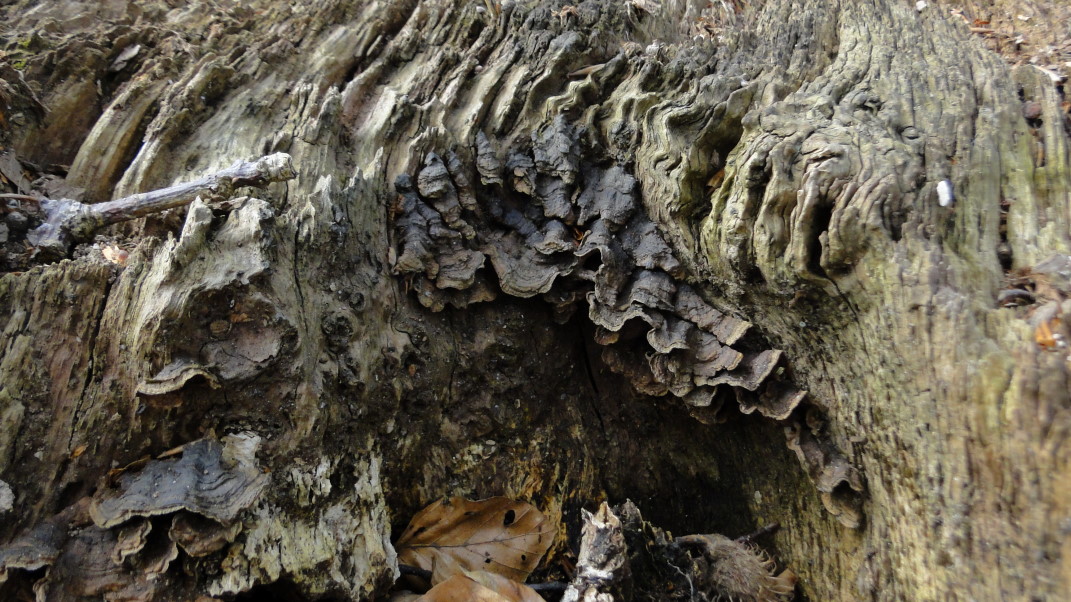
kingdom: Fungi
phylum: Basidiomycota
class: Agaricomycetes
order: Hymenochaetales
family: Hymenochaetaceae
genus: Hymenochaete
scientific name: Hymenochaete rubiginosa
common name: stiv ruslædersvamp
